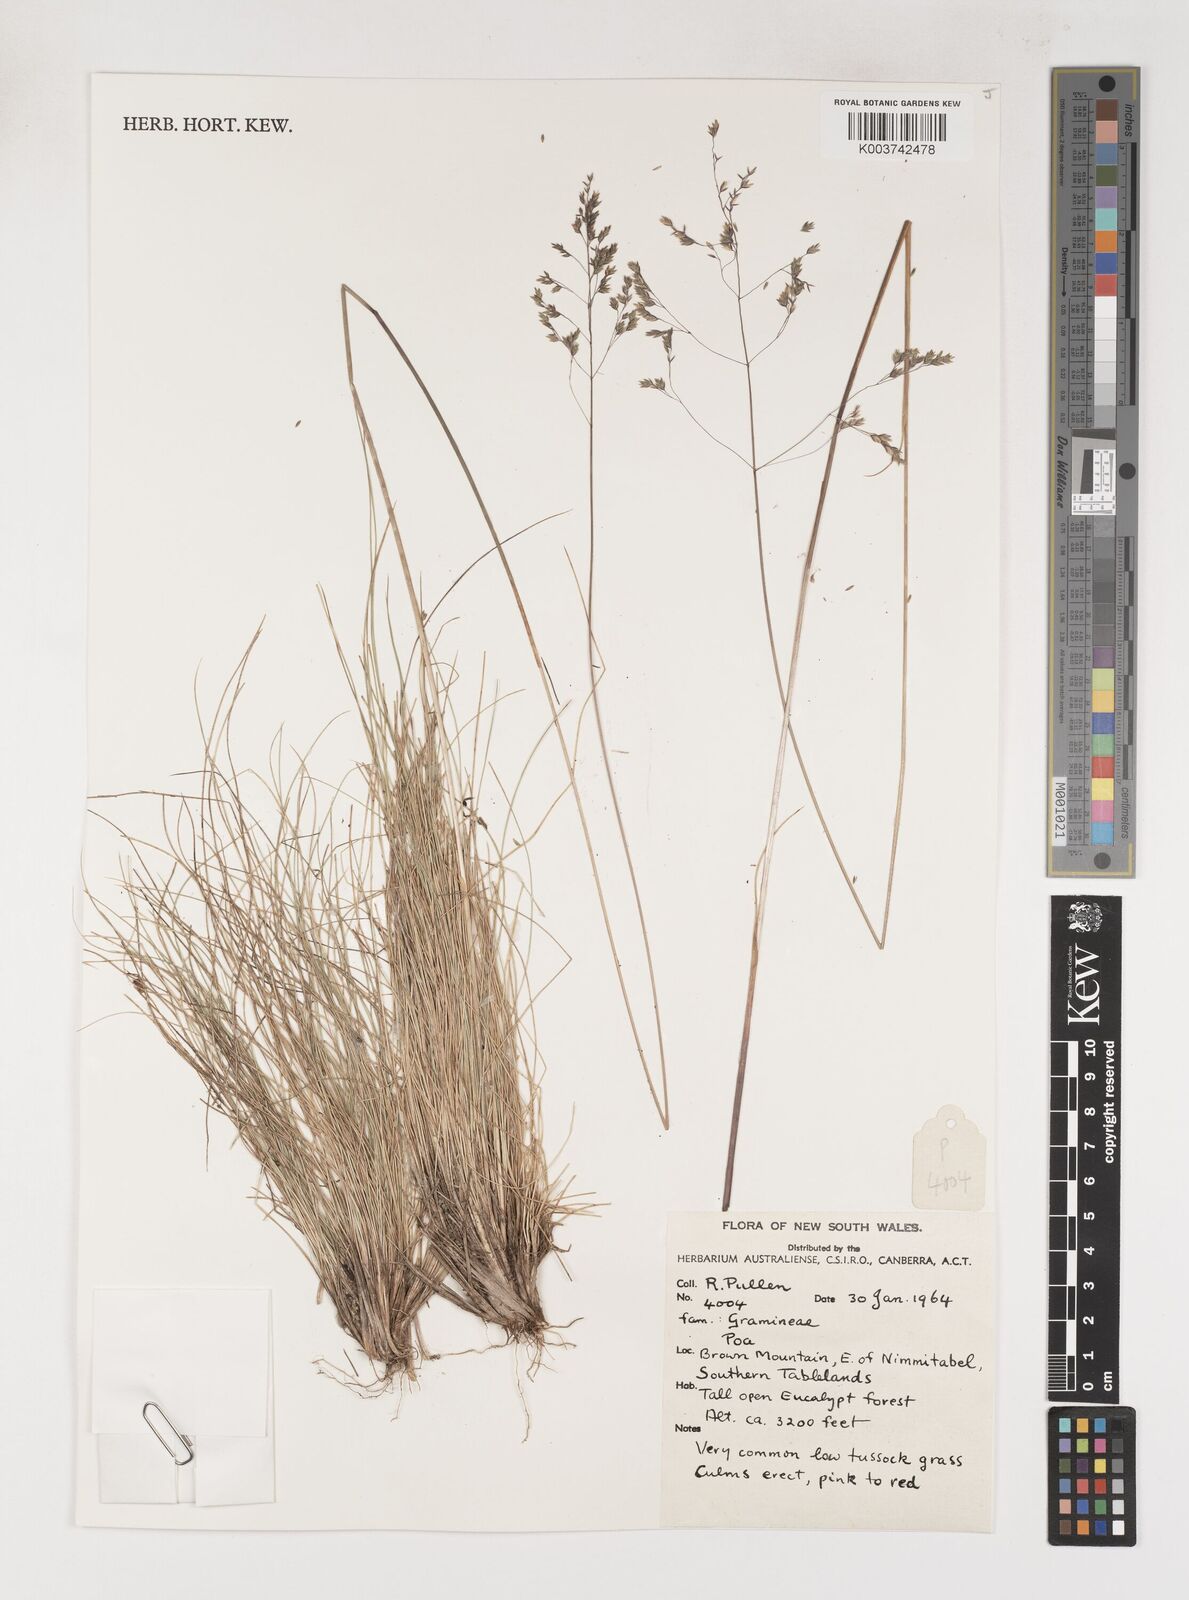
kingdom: Plantae
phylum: Tracheophyta
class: Liliopsida
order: Poales
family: Poaceae
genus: Poa
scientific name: Poa
